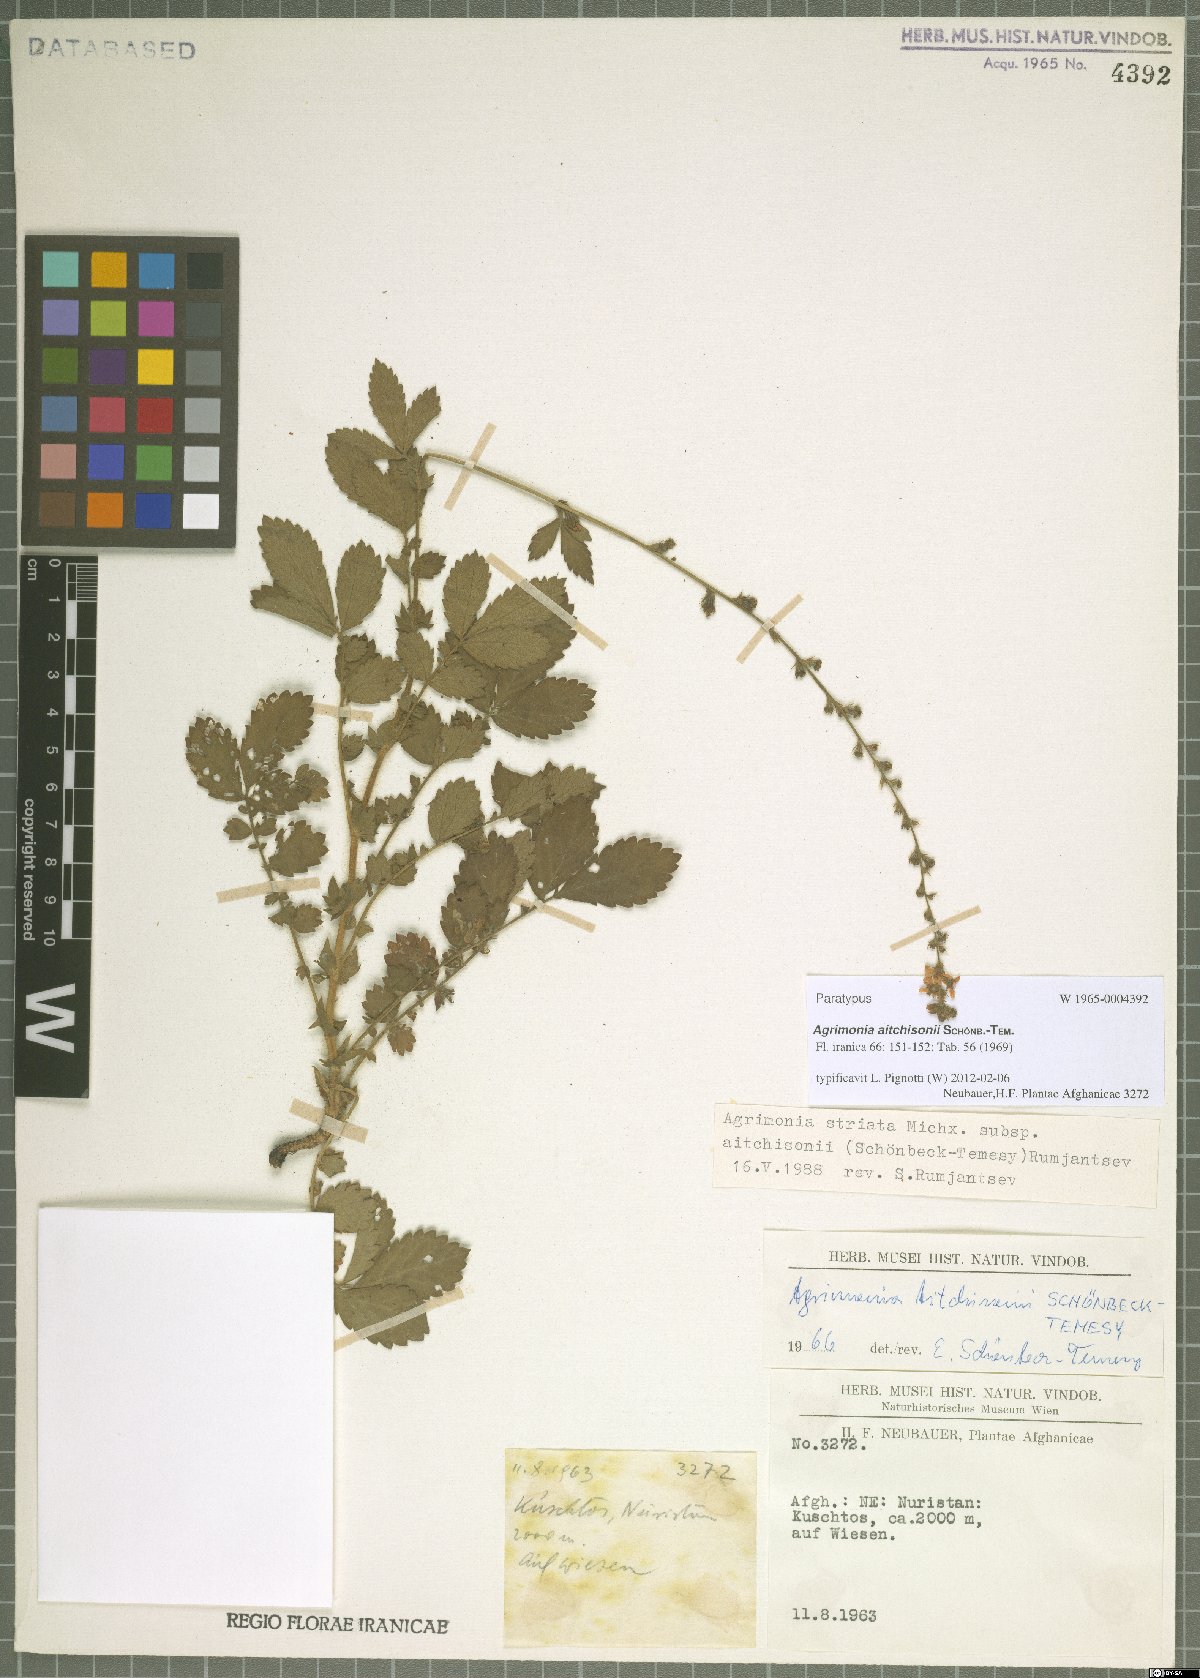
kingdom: Plantae
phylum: Tracheophyta
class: Magnoliopsida
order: Rosales
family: Rosaceae
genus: Agrimonia
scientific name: Agrimonia aitchisonii
